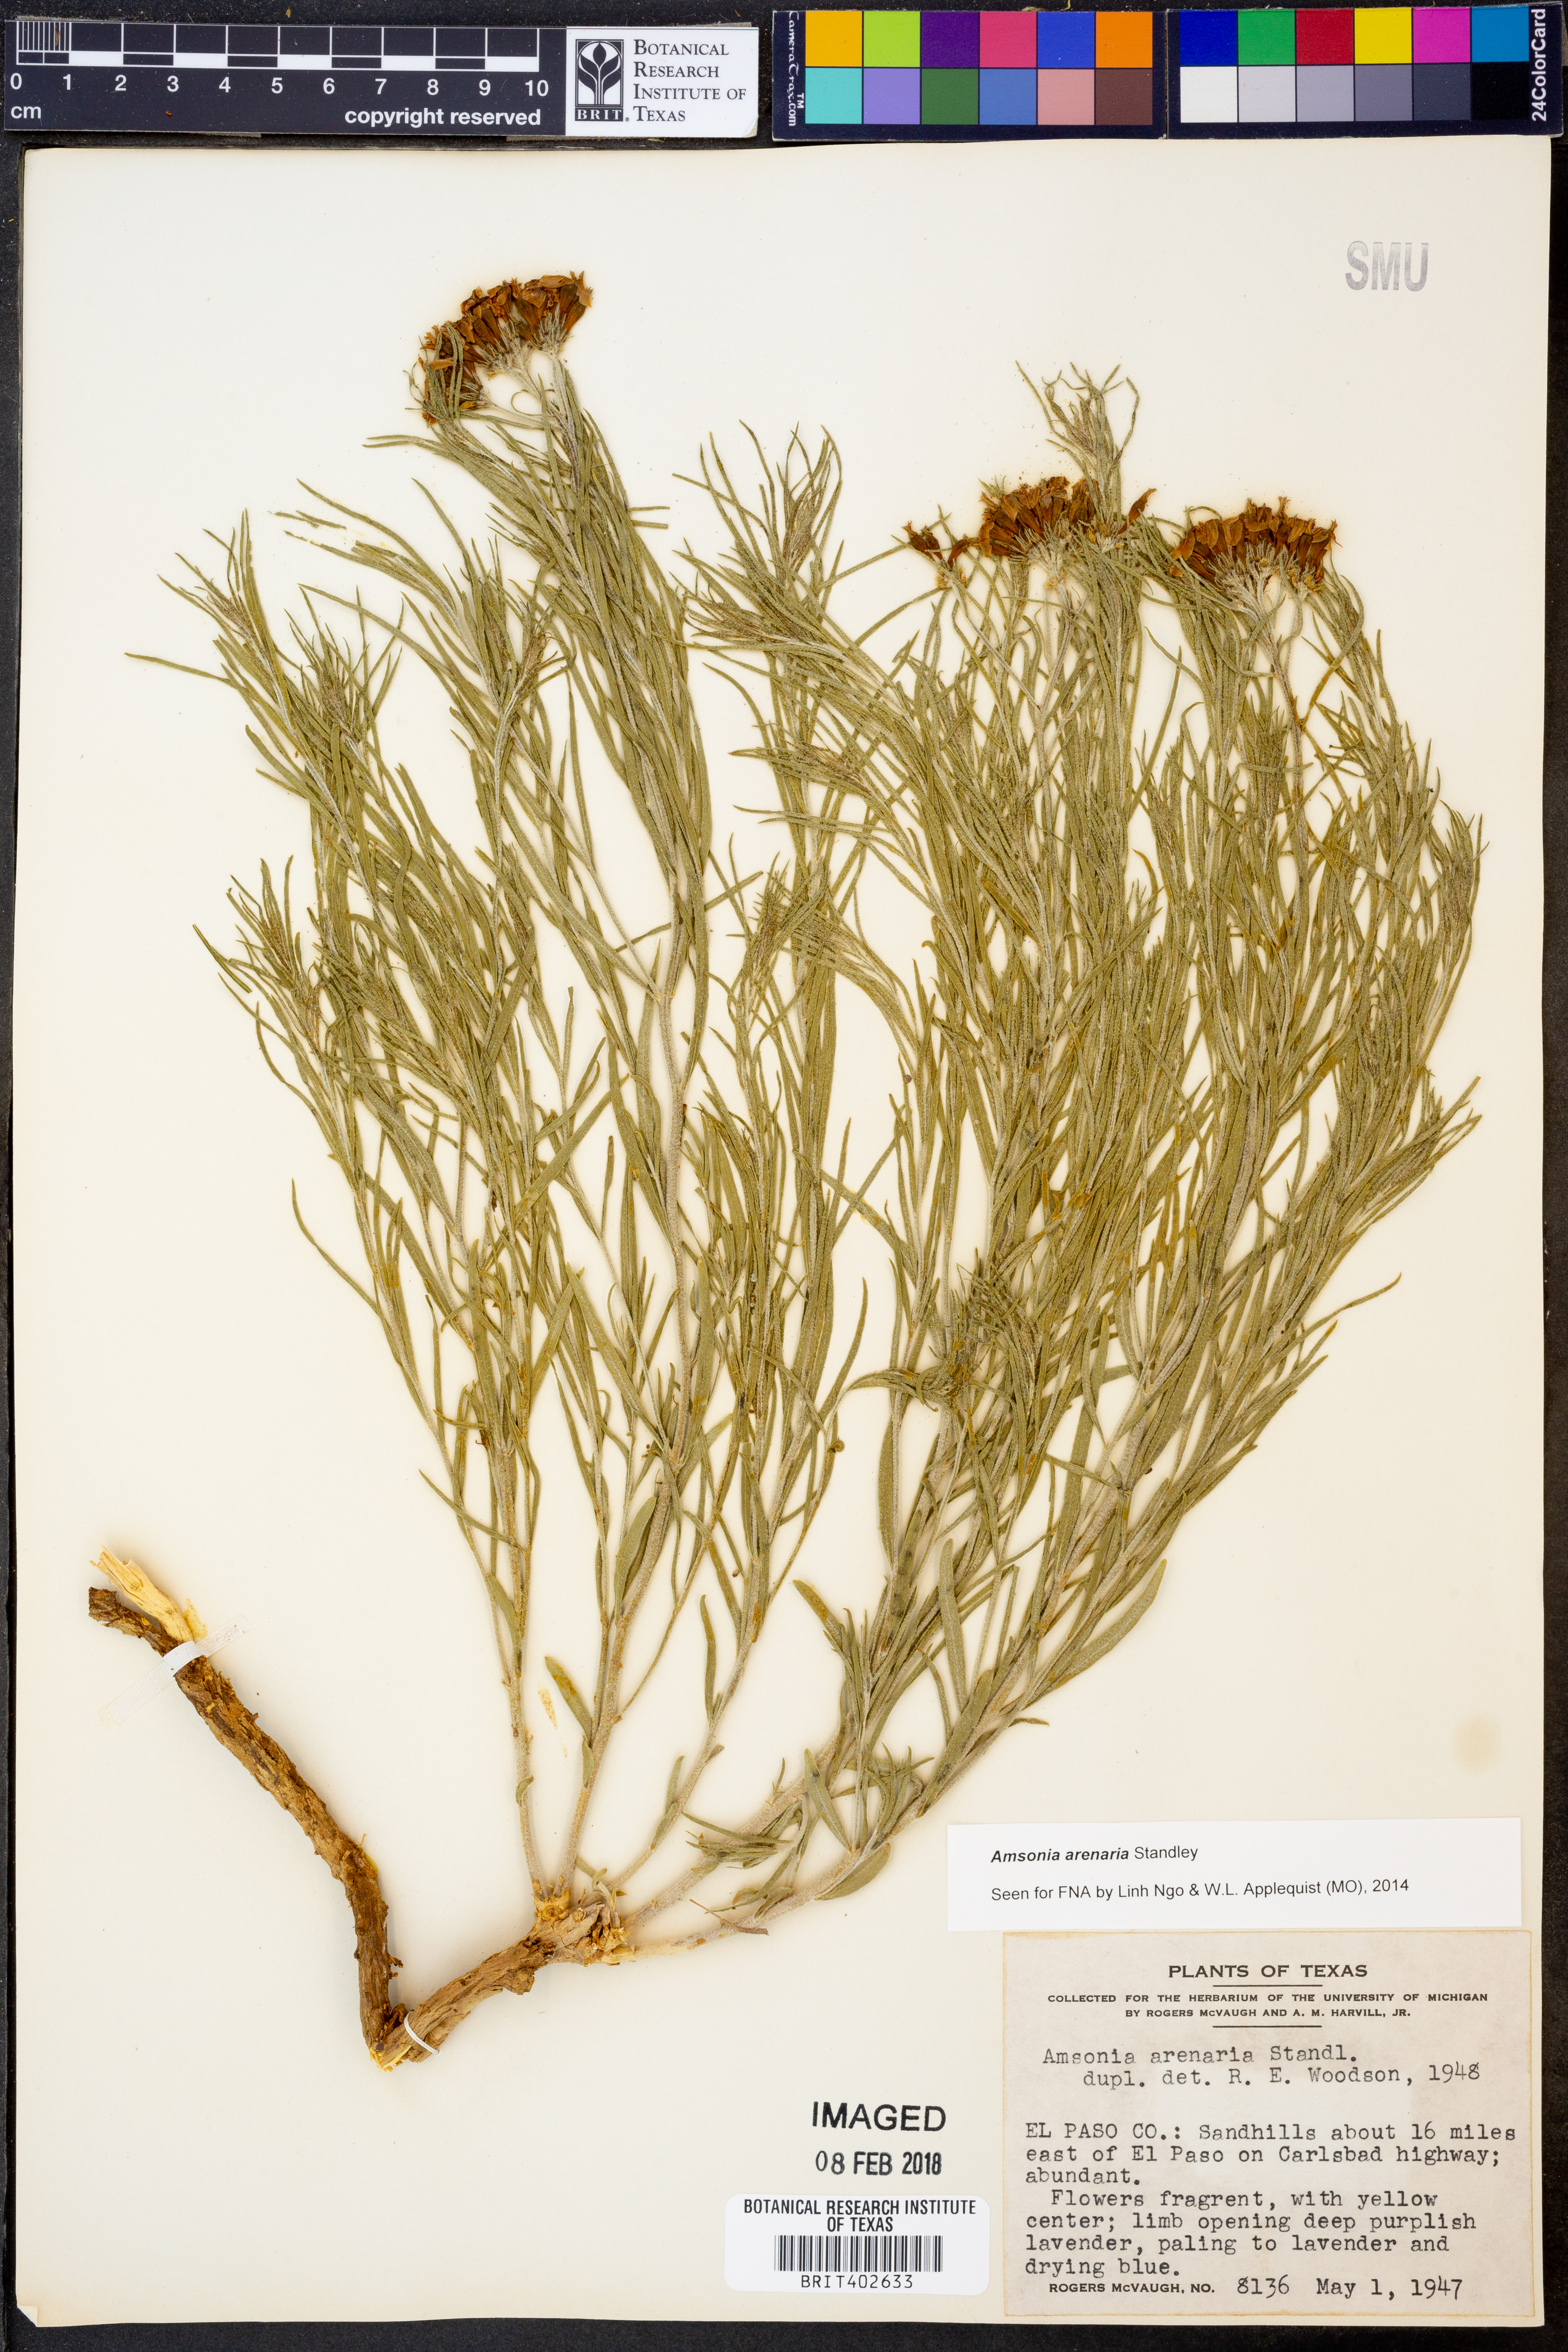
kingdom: Plantae
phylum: Tracheophyta
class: Magnoliopsida
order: Gentianales
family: Apocynaceae
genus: Amsonia
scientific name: Amsonia tomentosa
